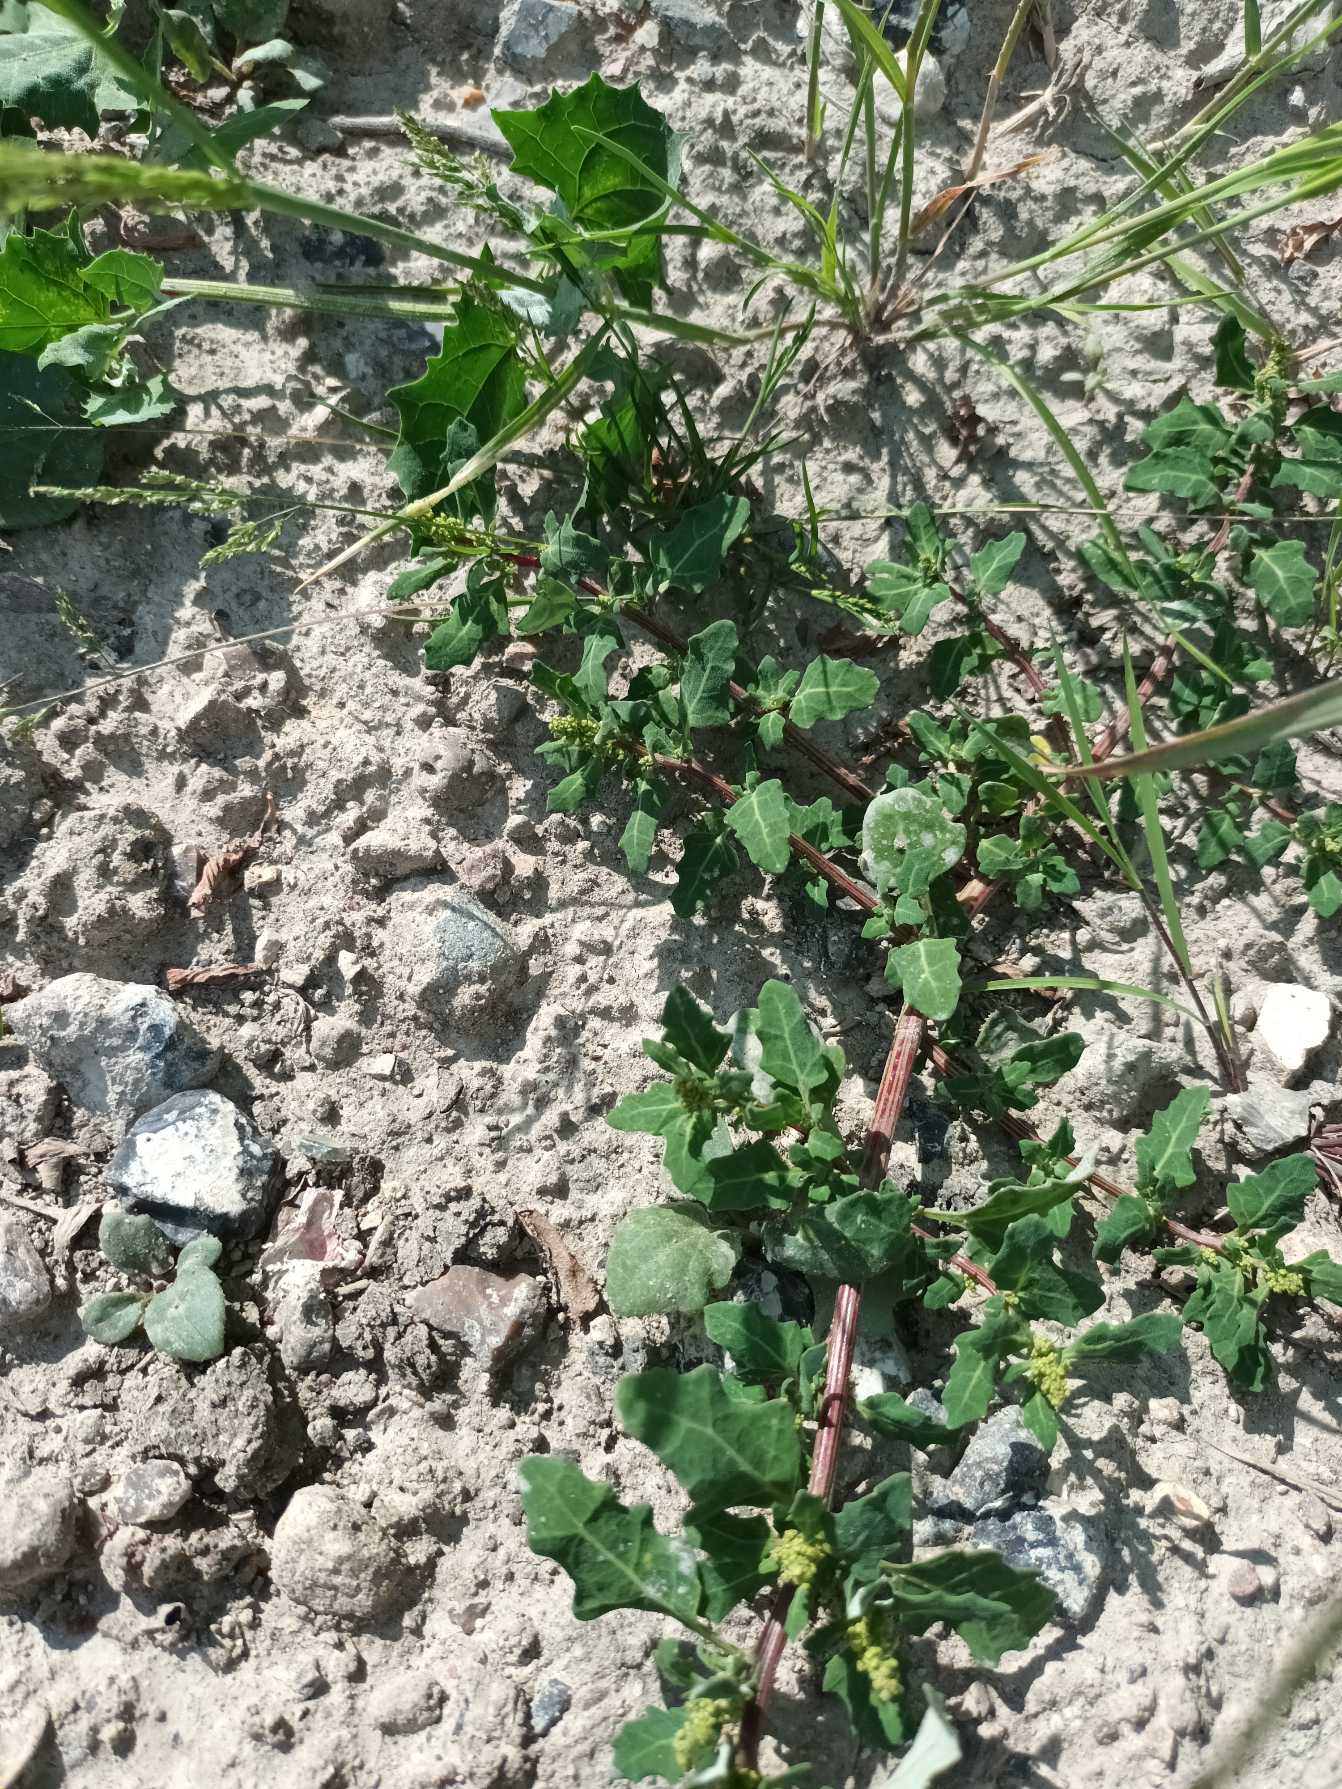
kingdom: Plantae
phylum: Tracheophyta
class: Magnoliopsida
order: Caryophyllales
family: Amaranthaceae
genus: Oxybasis
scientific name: Oxybasis glauca
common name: Blågrøn gåsefod
